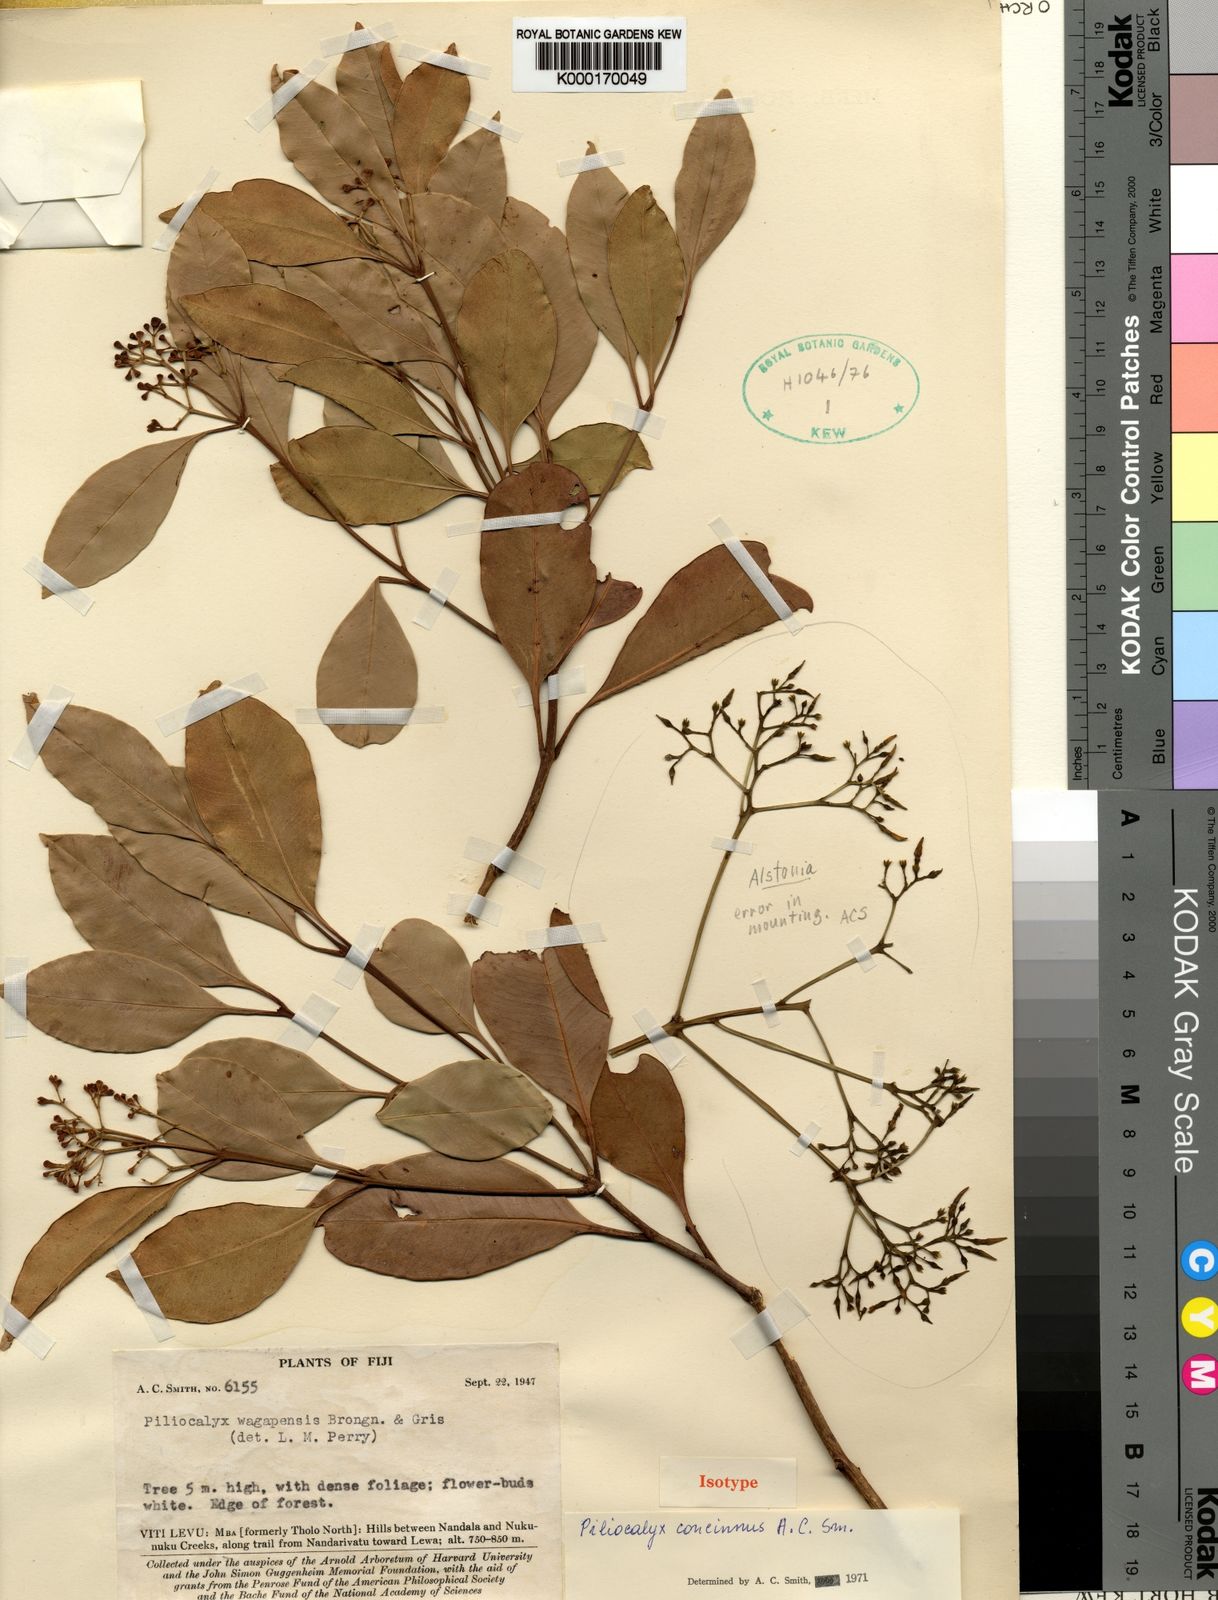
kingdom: Plantae
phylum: Tracheophyta
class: Magnoliopsida
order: Myrtales
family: Myrtaceae
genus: Syzygium
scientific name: Syzygium concinnum
